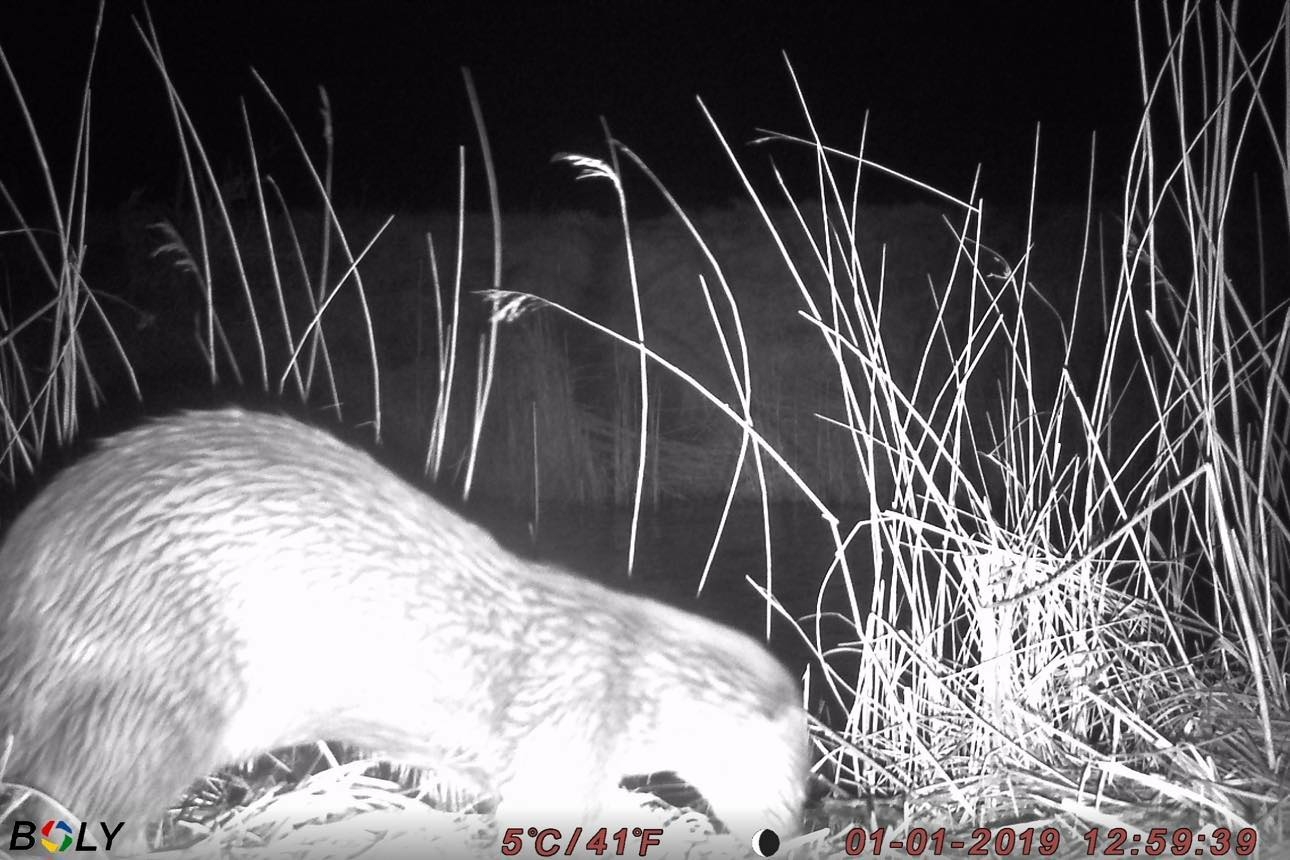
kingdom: Animalia
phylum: Chordata
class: Mammalia
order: Carnivora
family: Mustelidae
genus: Lutra
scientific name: Lutra lutra
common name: Odder
